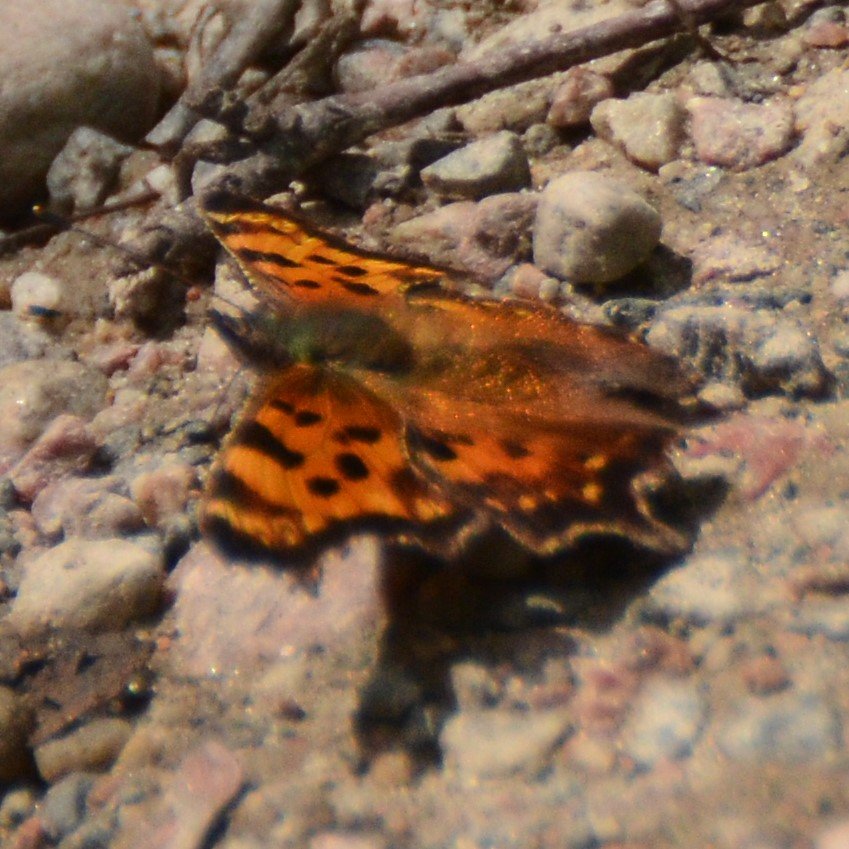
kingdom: Animalia
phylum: Arthropoda
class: Insecta
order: Lepidoptera
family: Nymphalidae
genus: Polygonia
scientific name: Polygonia faunus
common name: Green Comma
